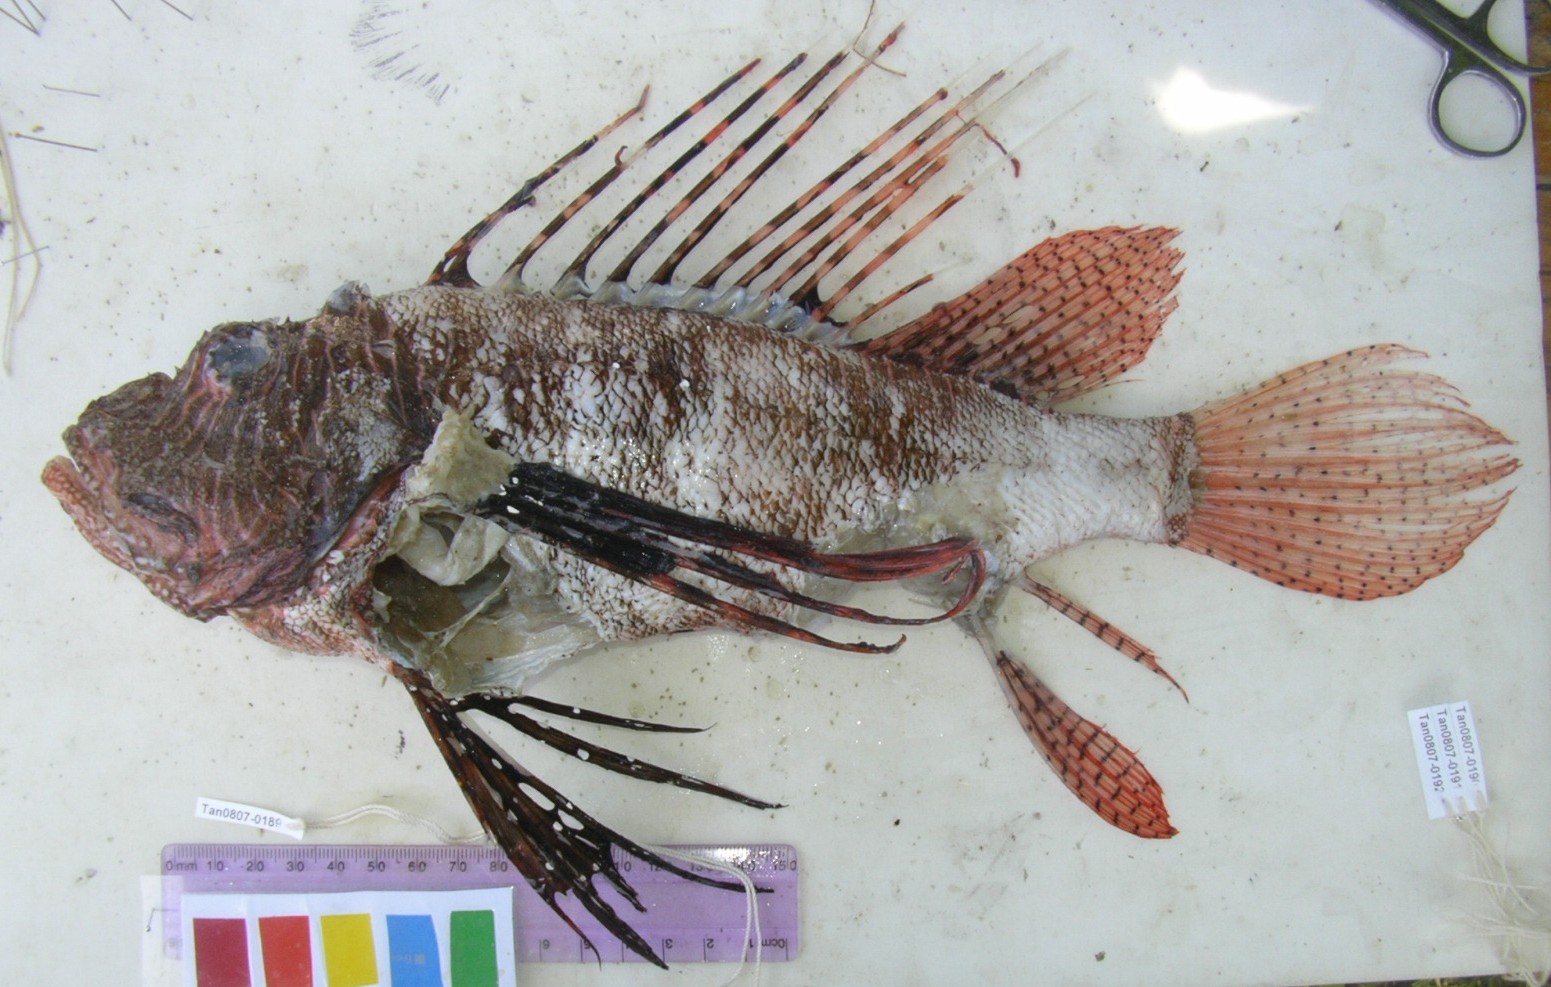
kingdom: Animalia
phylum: Chordata
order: Scorpaeniformes
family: Scorpaenidae
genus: Dendrochirus
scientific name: Dendrochirus brachypterus
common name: Shortfin turkeyfish
